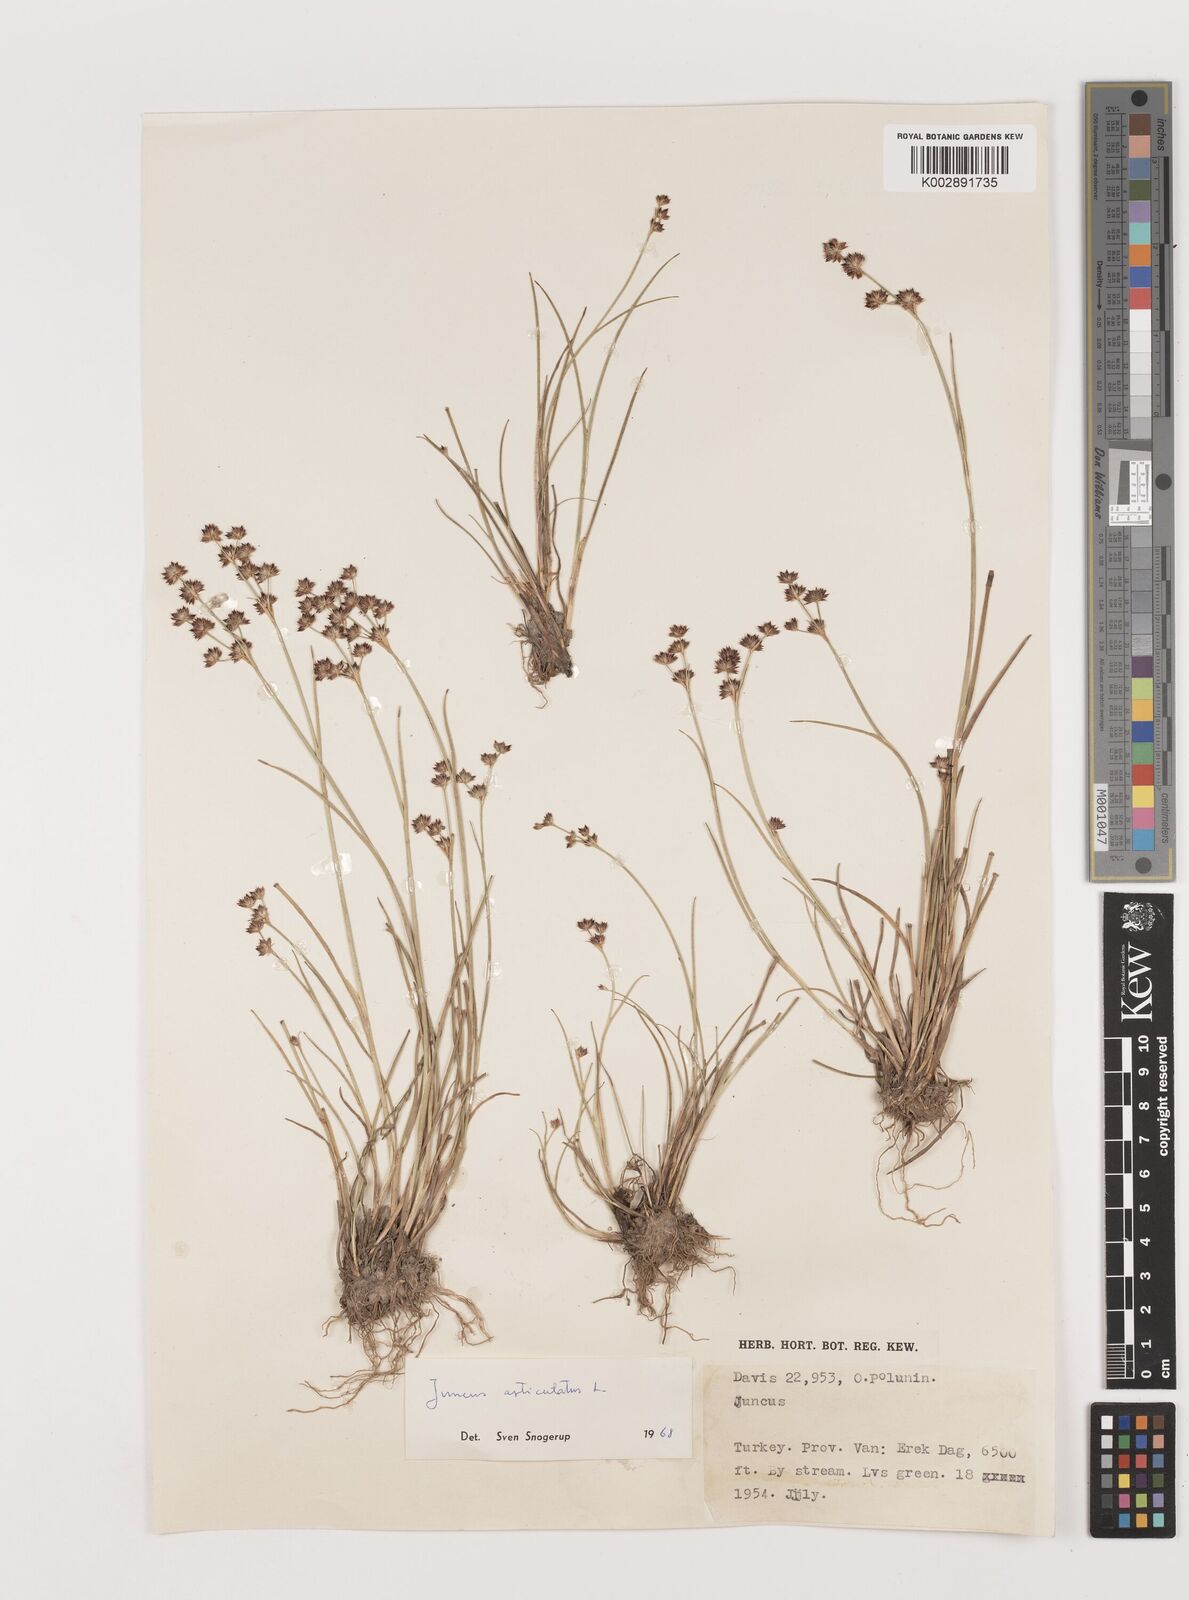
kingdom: Plantae
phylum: Tracheophyta
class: Liliopsida
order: Poales
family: Juncaceae
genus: Juncus
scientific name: Juncus articulatus
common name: Jointed rush
